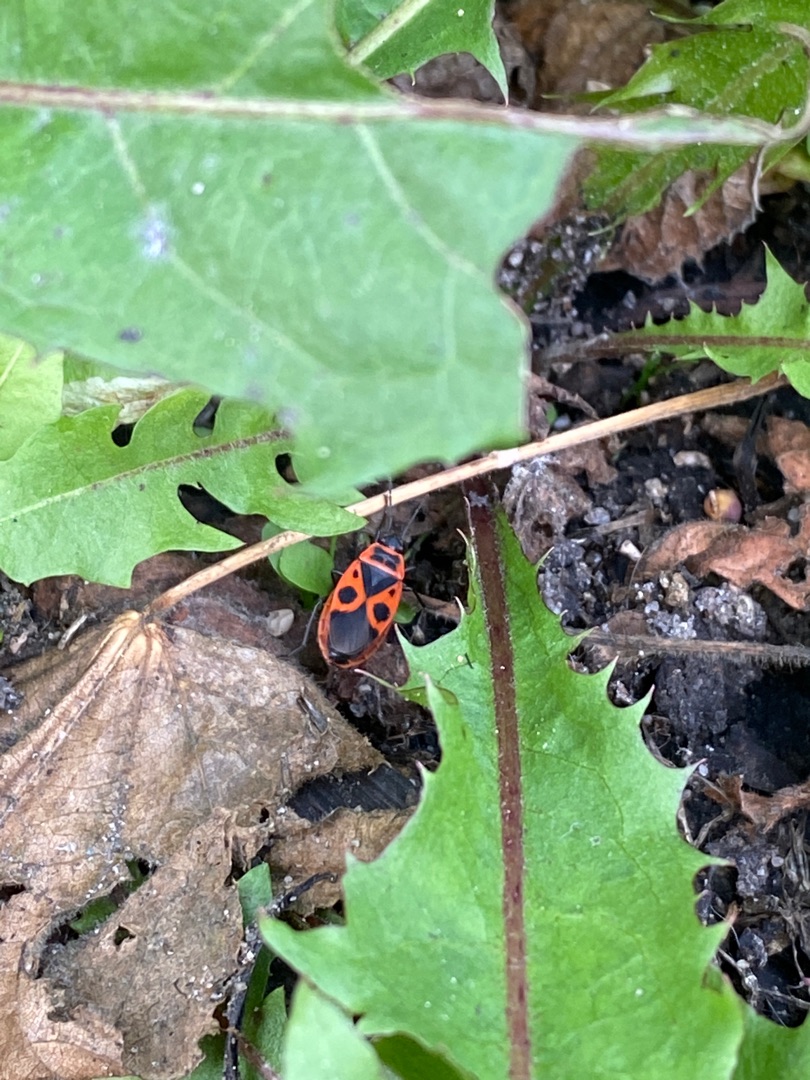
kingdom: Animalia
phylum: Arthropoda
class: Insecta
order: Hemiptera
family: Pyrrhocoridae
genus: Pyrrhocoris
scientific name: Pyrrhocoris apterus
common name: Ildtæge
